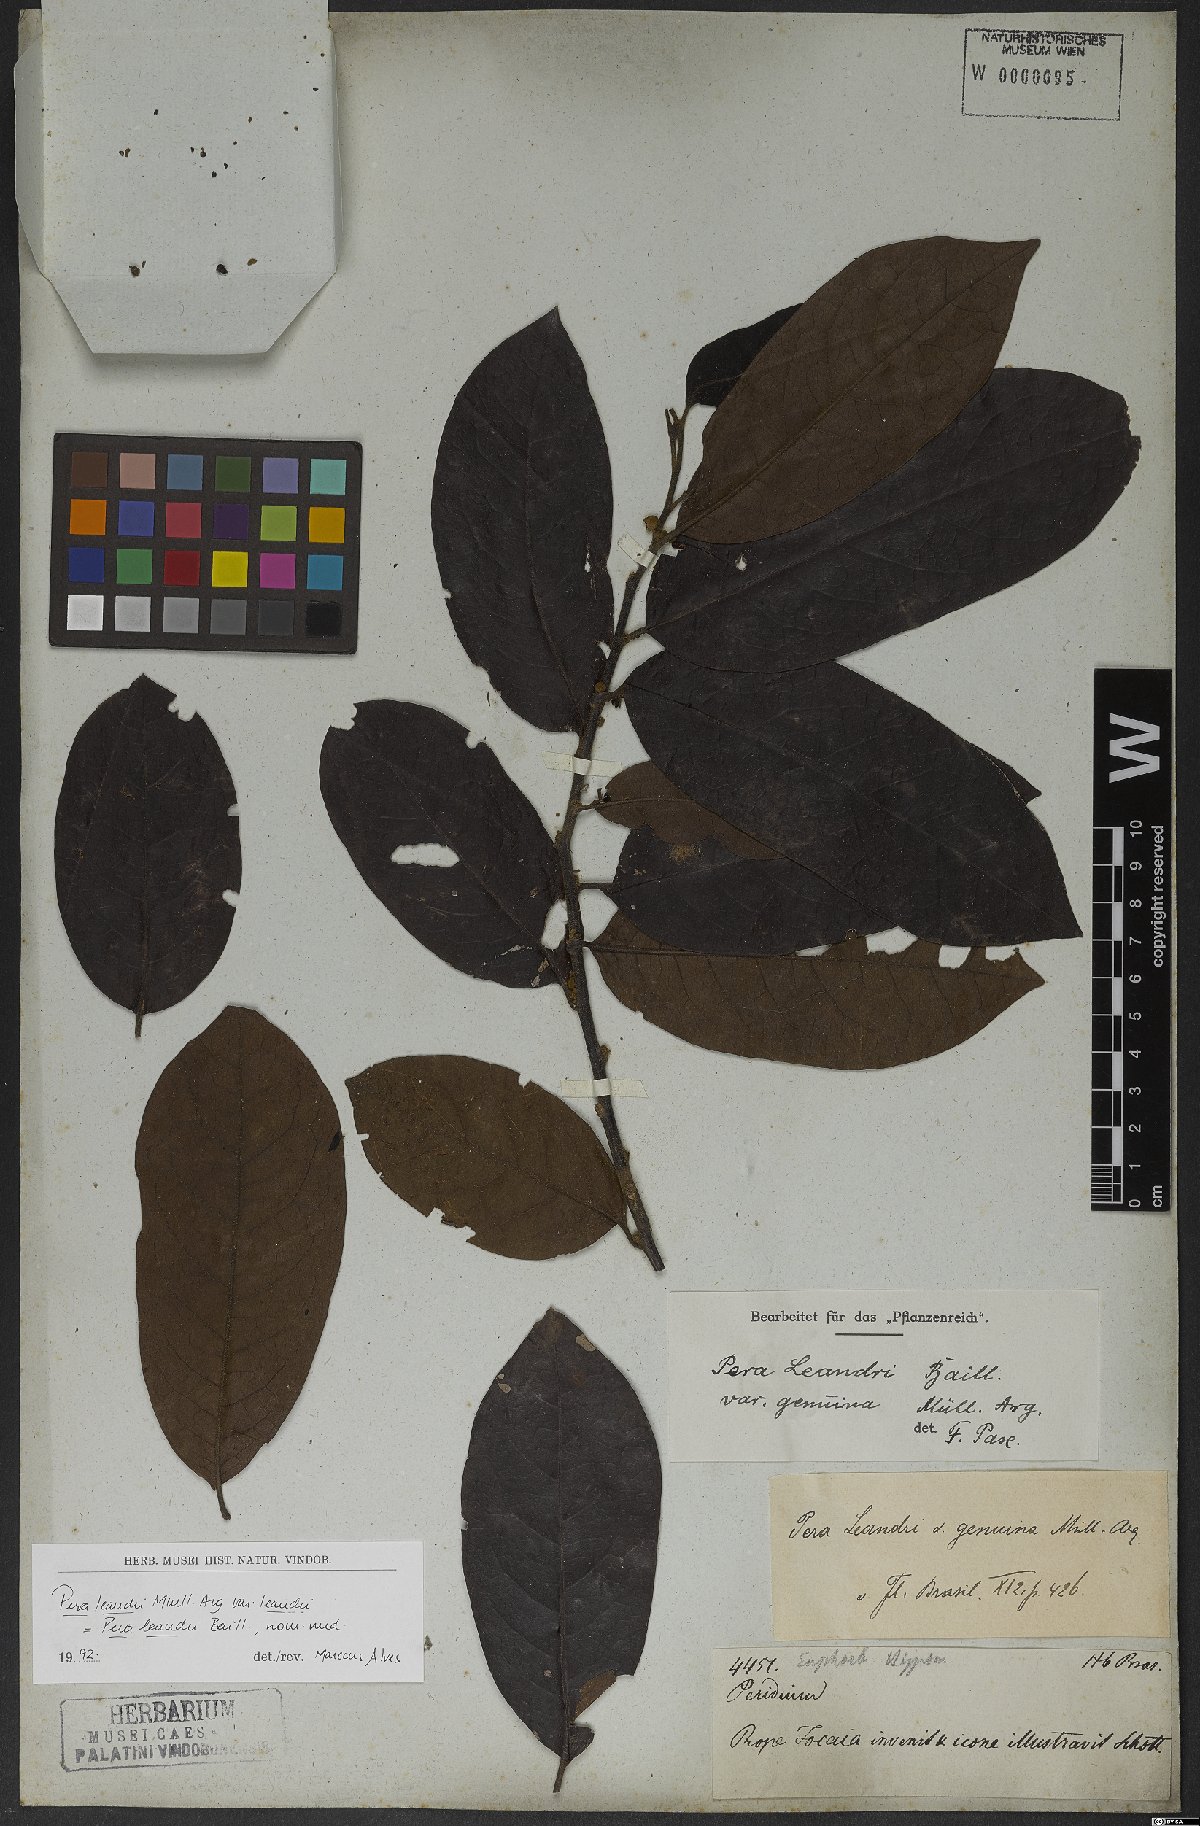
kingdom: Plantae
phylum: Tracheophyta
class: Magnoliopsida
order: Malpighiales
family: Peraceae
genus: Pera
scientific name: Pera heteranthera
